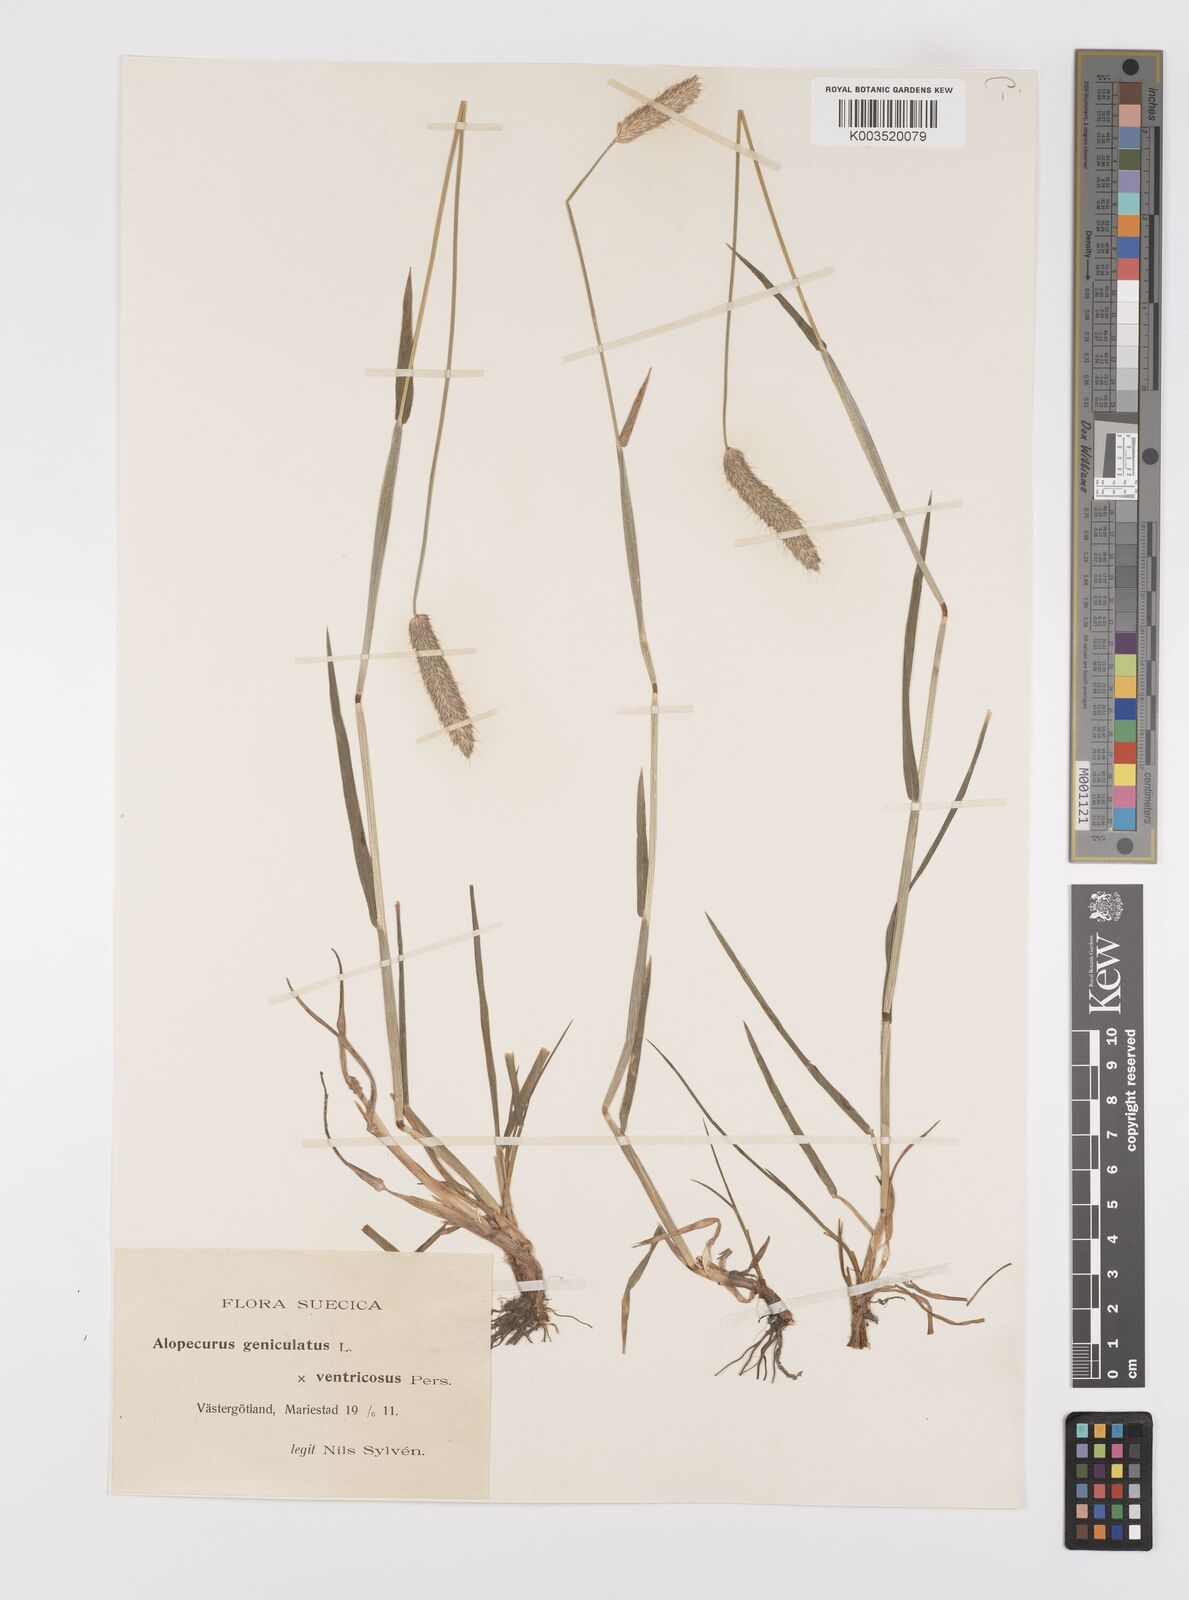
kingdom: Plantae
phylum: Tracheophyta
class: Liliopsida
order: Poales
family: Poaceae
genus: Alopecurus
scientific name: Alopecurus arundinaceus
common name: Creeping meadow foxtail
